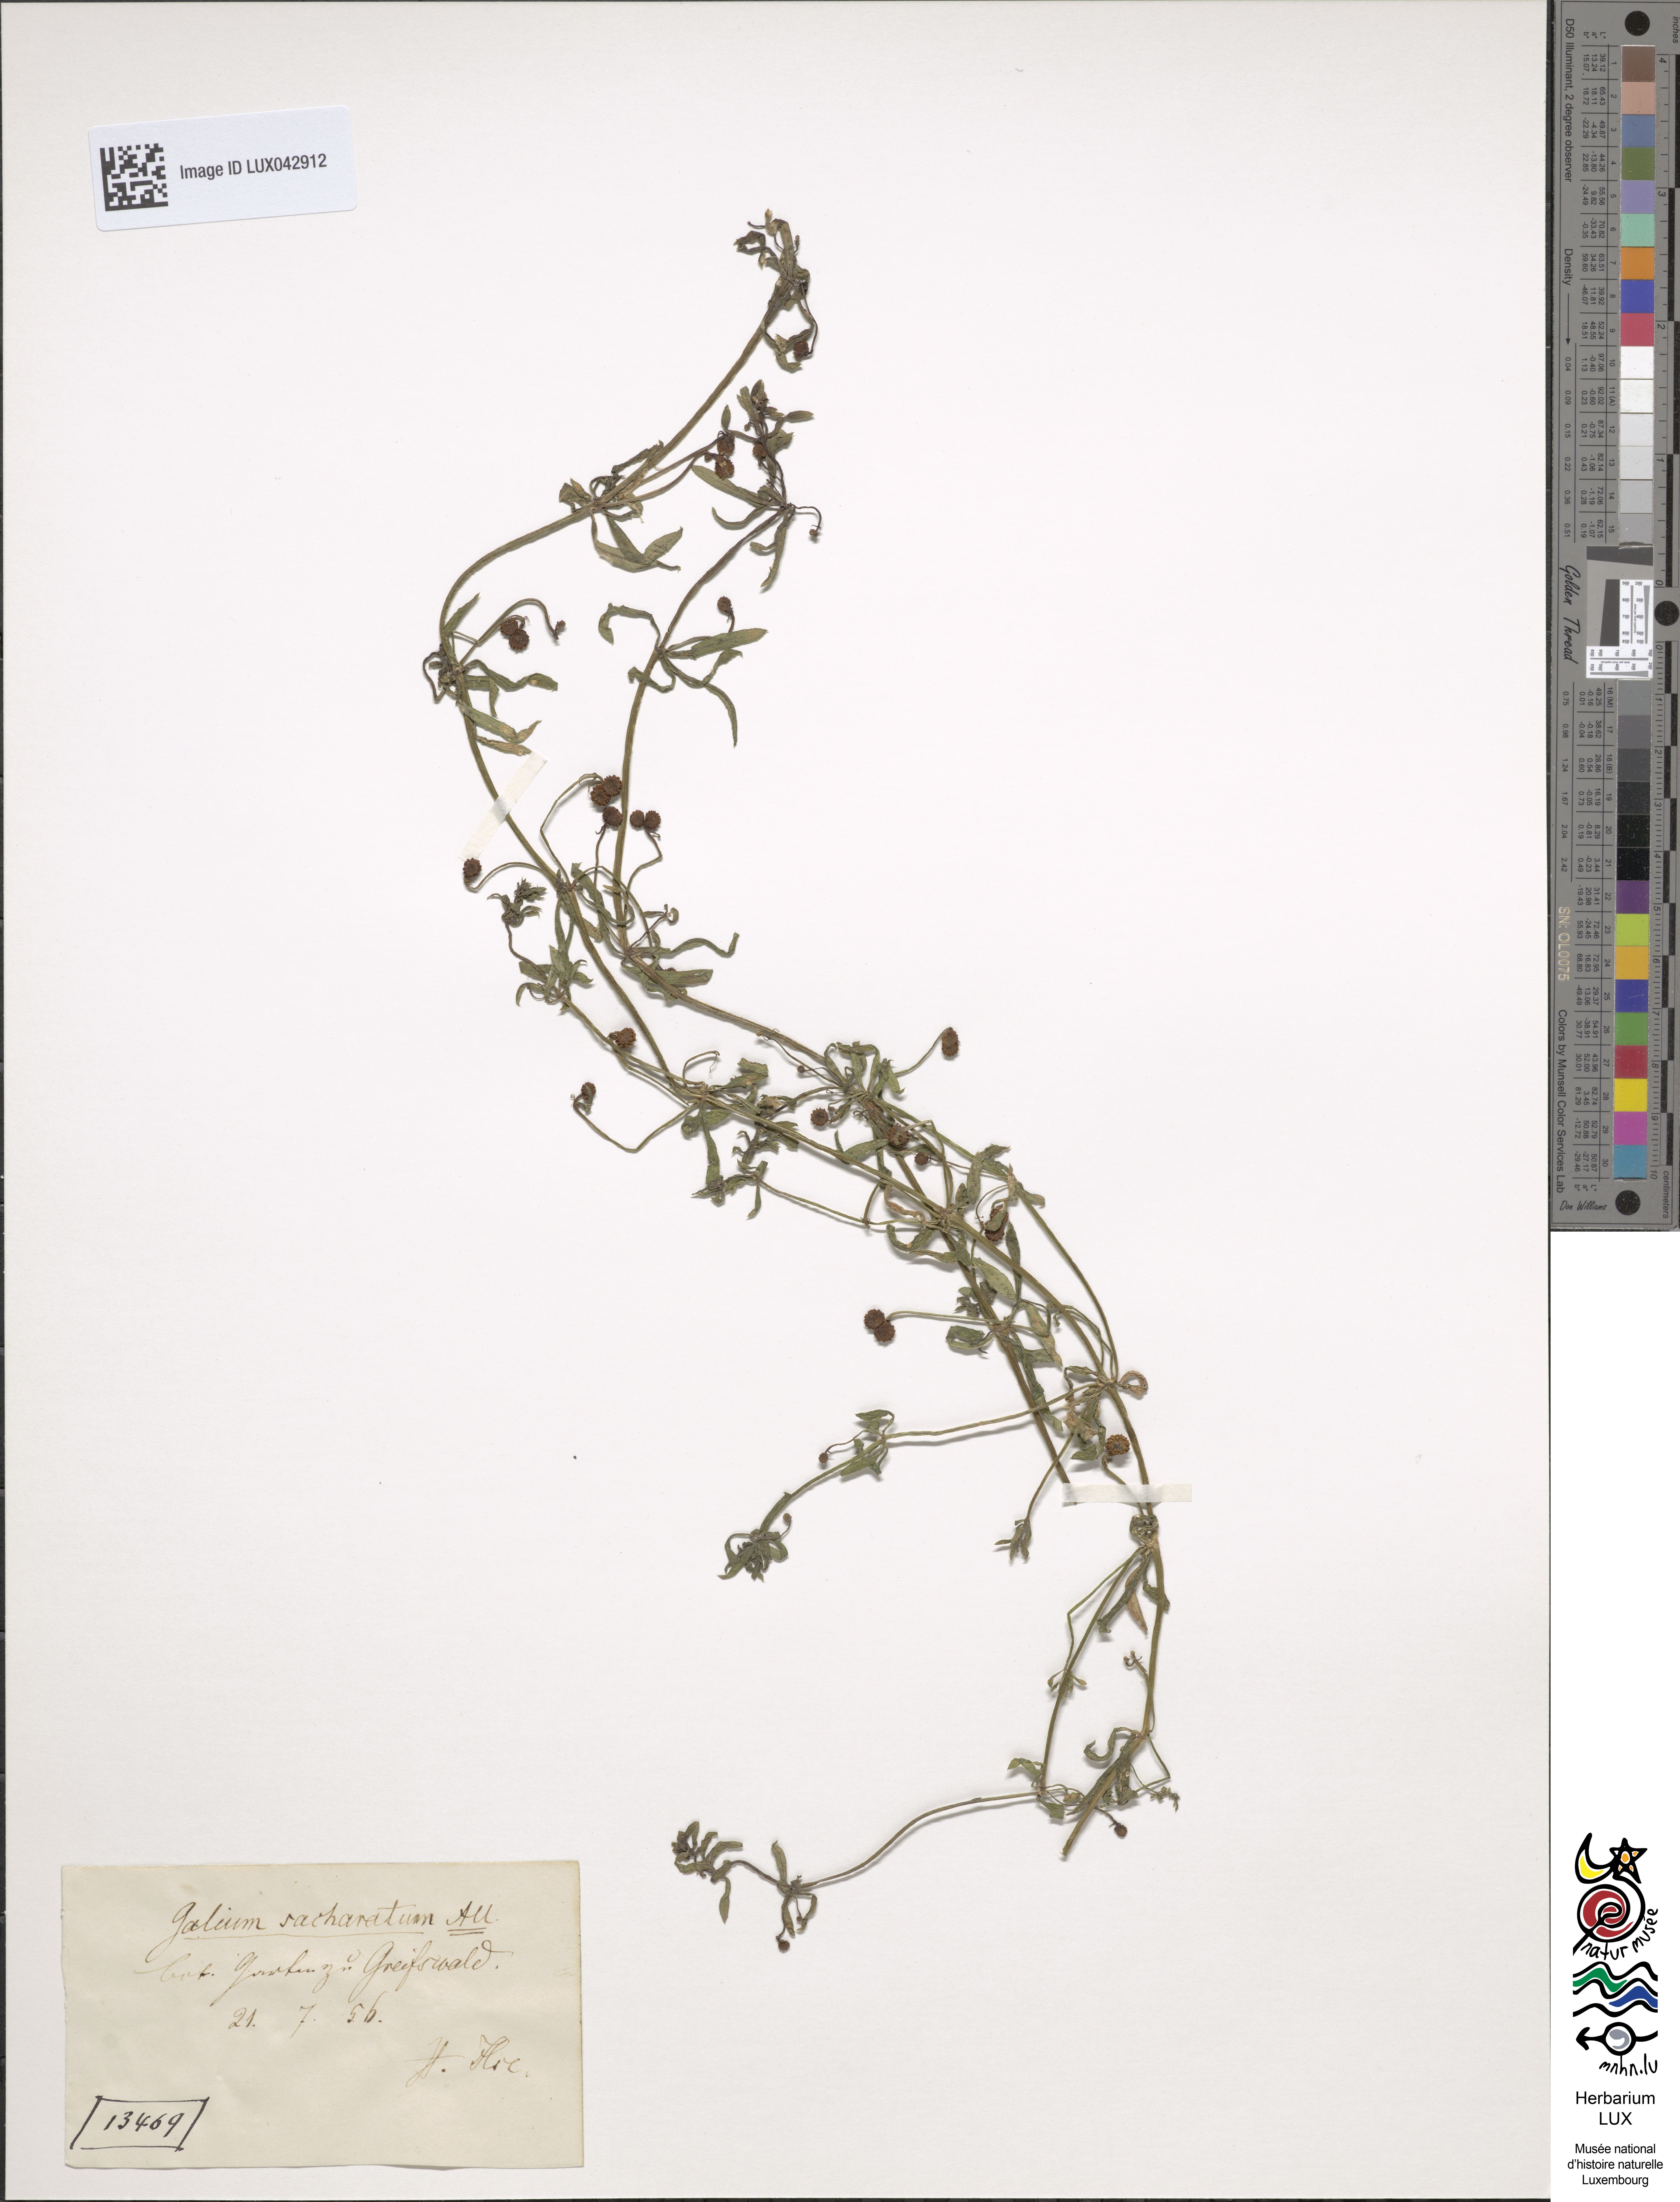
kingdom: Plantae
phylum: Tracheophyta
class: Magnoliopsida
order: Gentianales
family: Rubiaceae
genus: Galium
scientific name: Galium verrucosum
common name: Warty bedstraw
